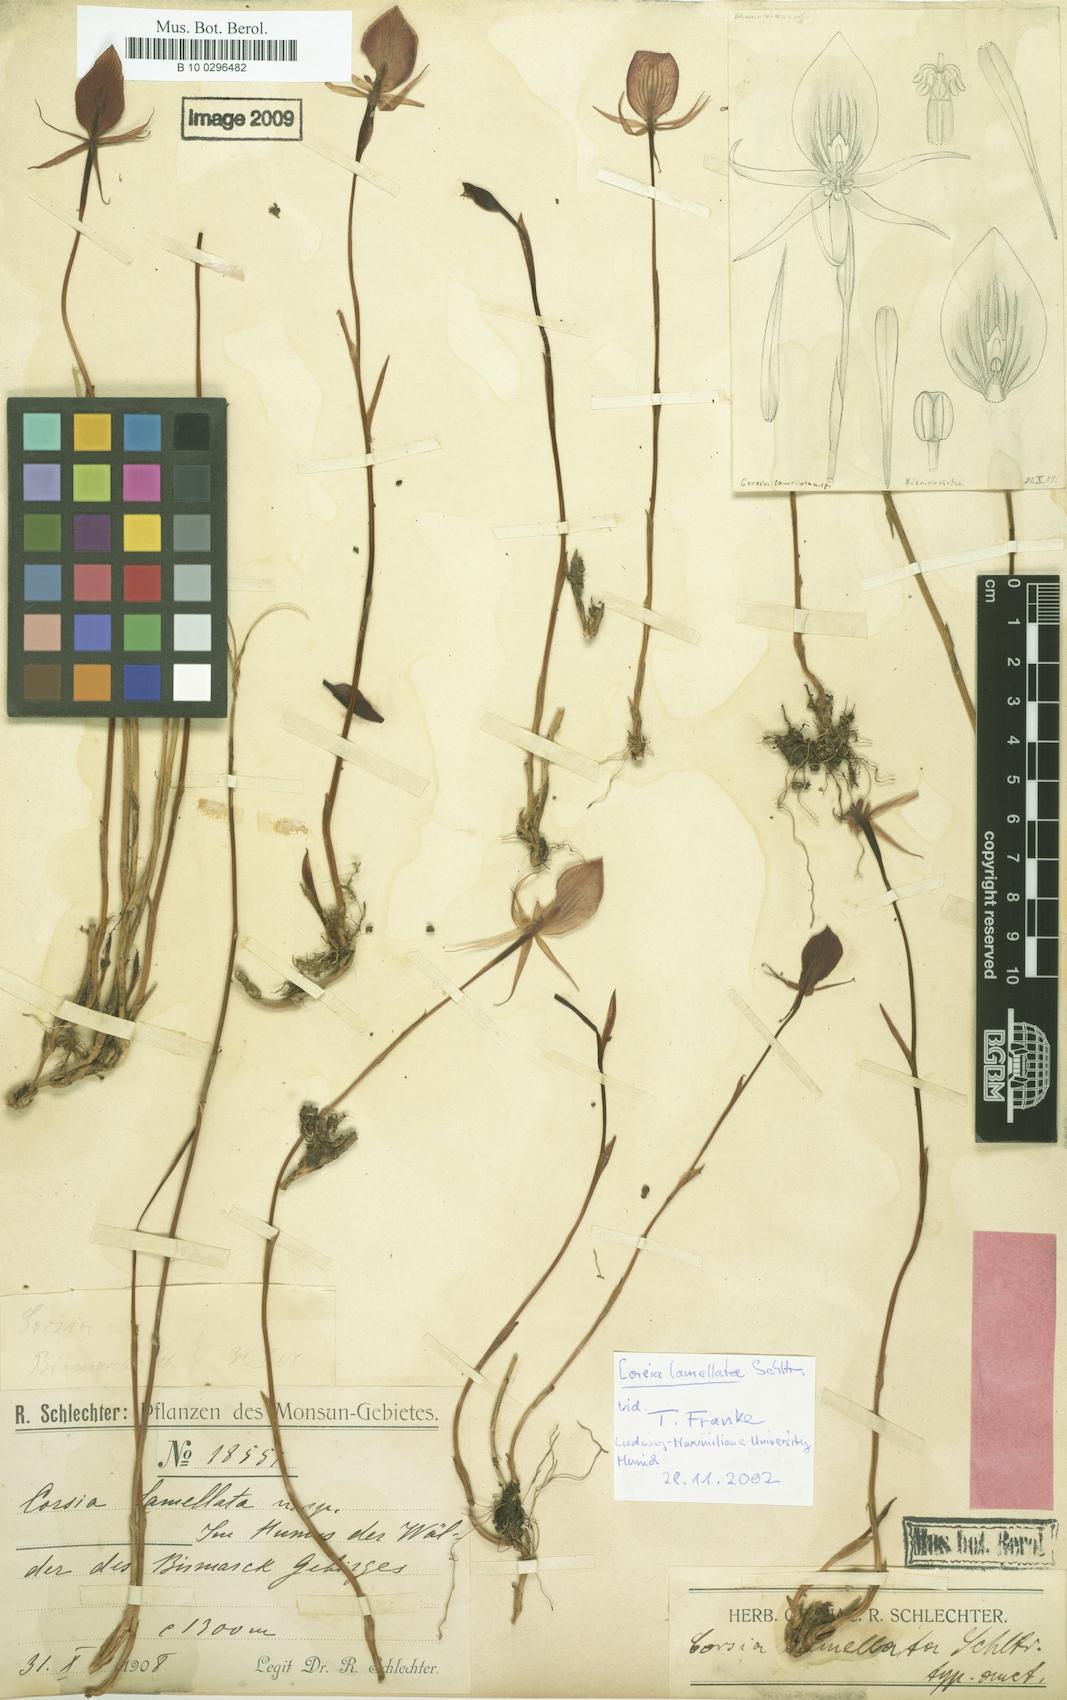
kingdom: Plantae
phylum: Tracheophyta
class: Liliopsida
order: Liliales
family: Corsiaceae
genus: Corsia
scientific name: Corsia lamellata
